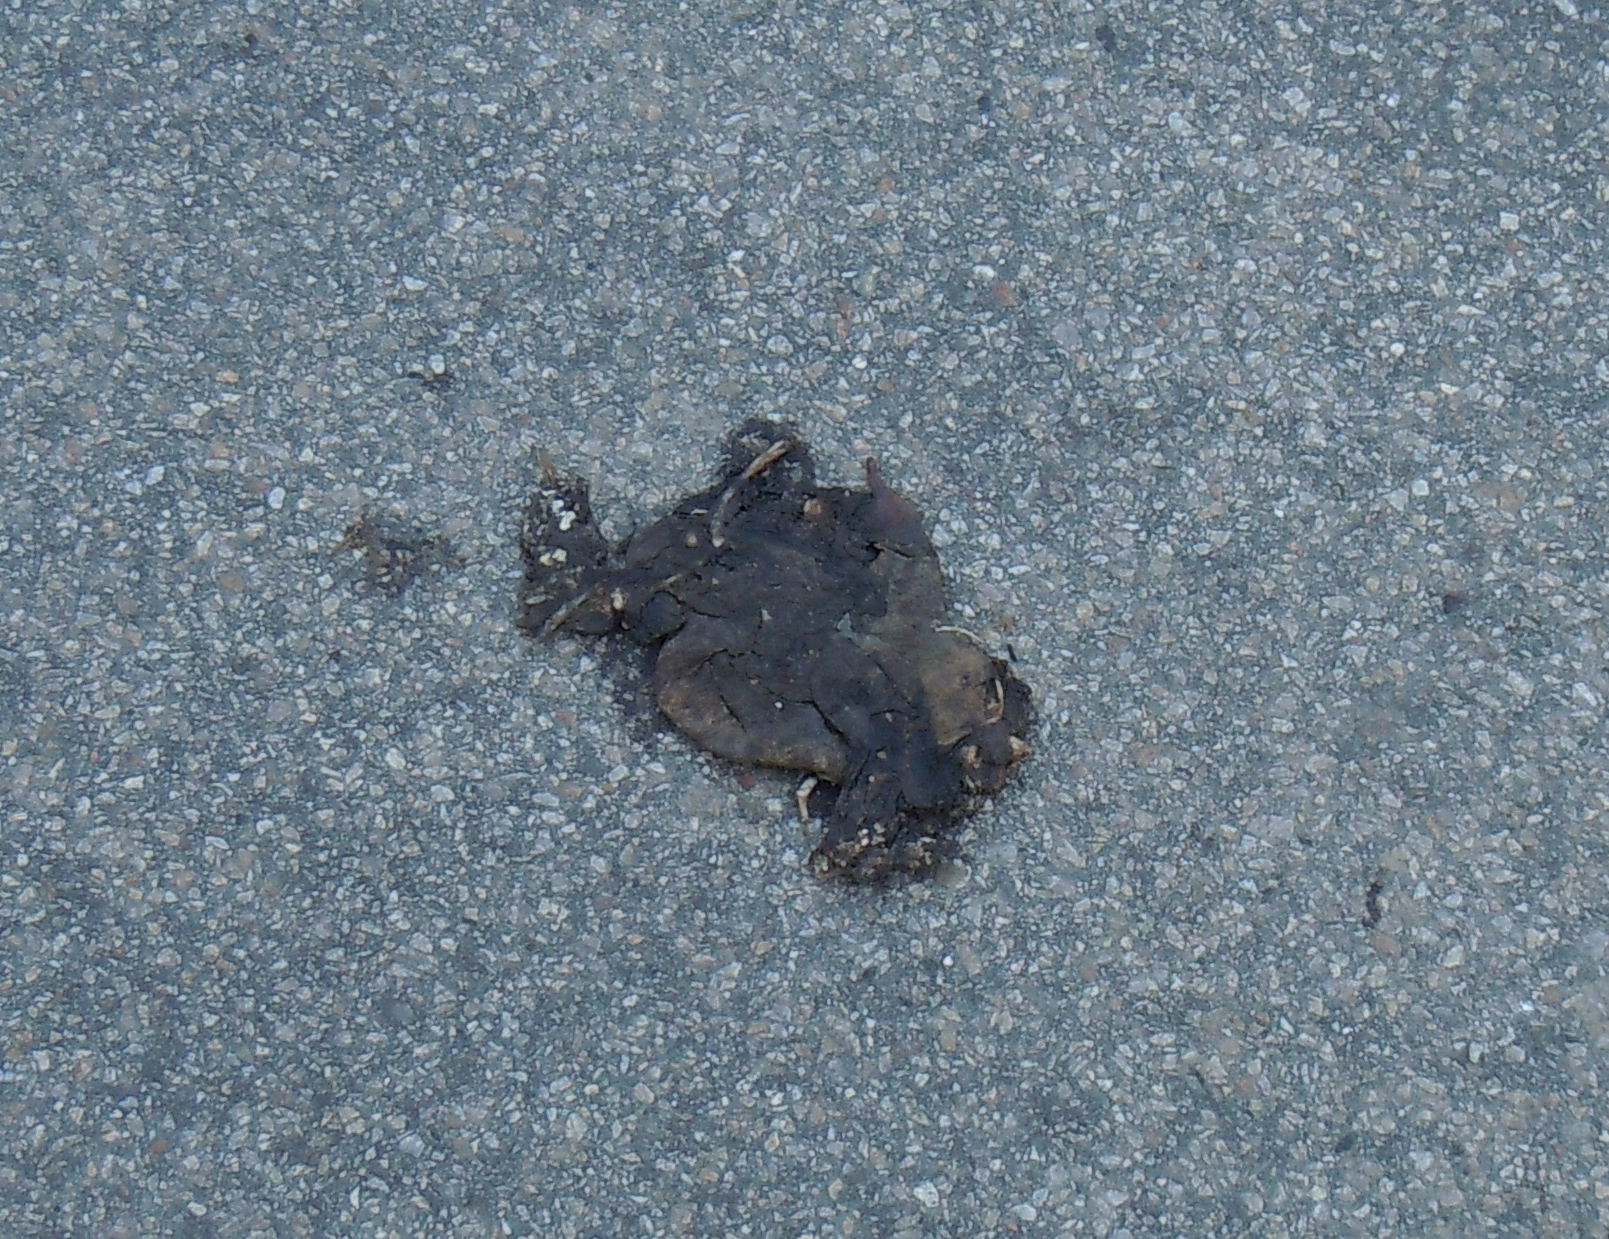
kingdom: Animalia
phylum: Chordata
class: Amphibia
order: Anura
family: Bufonidae
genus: Bufo
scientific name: Bufo bufo
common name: Common toad
